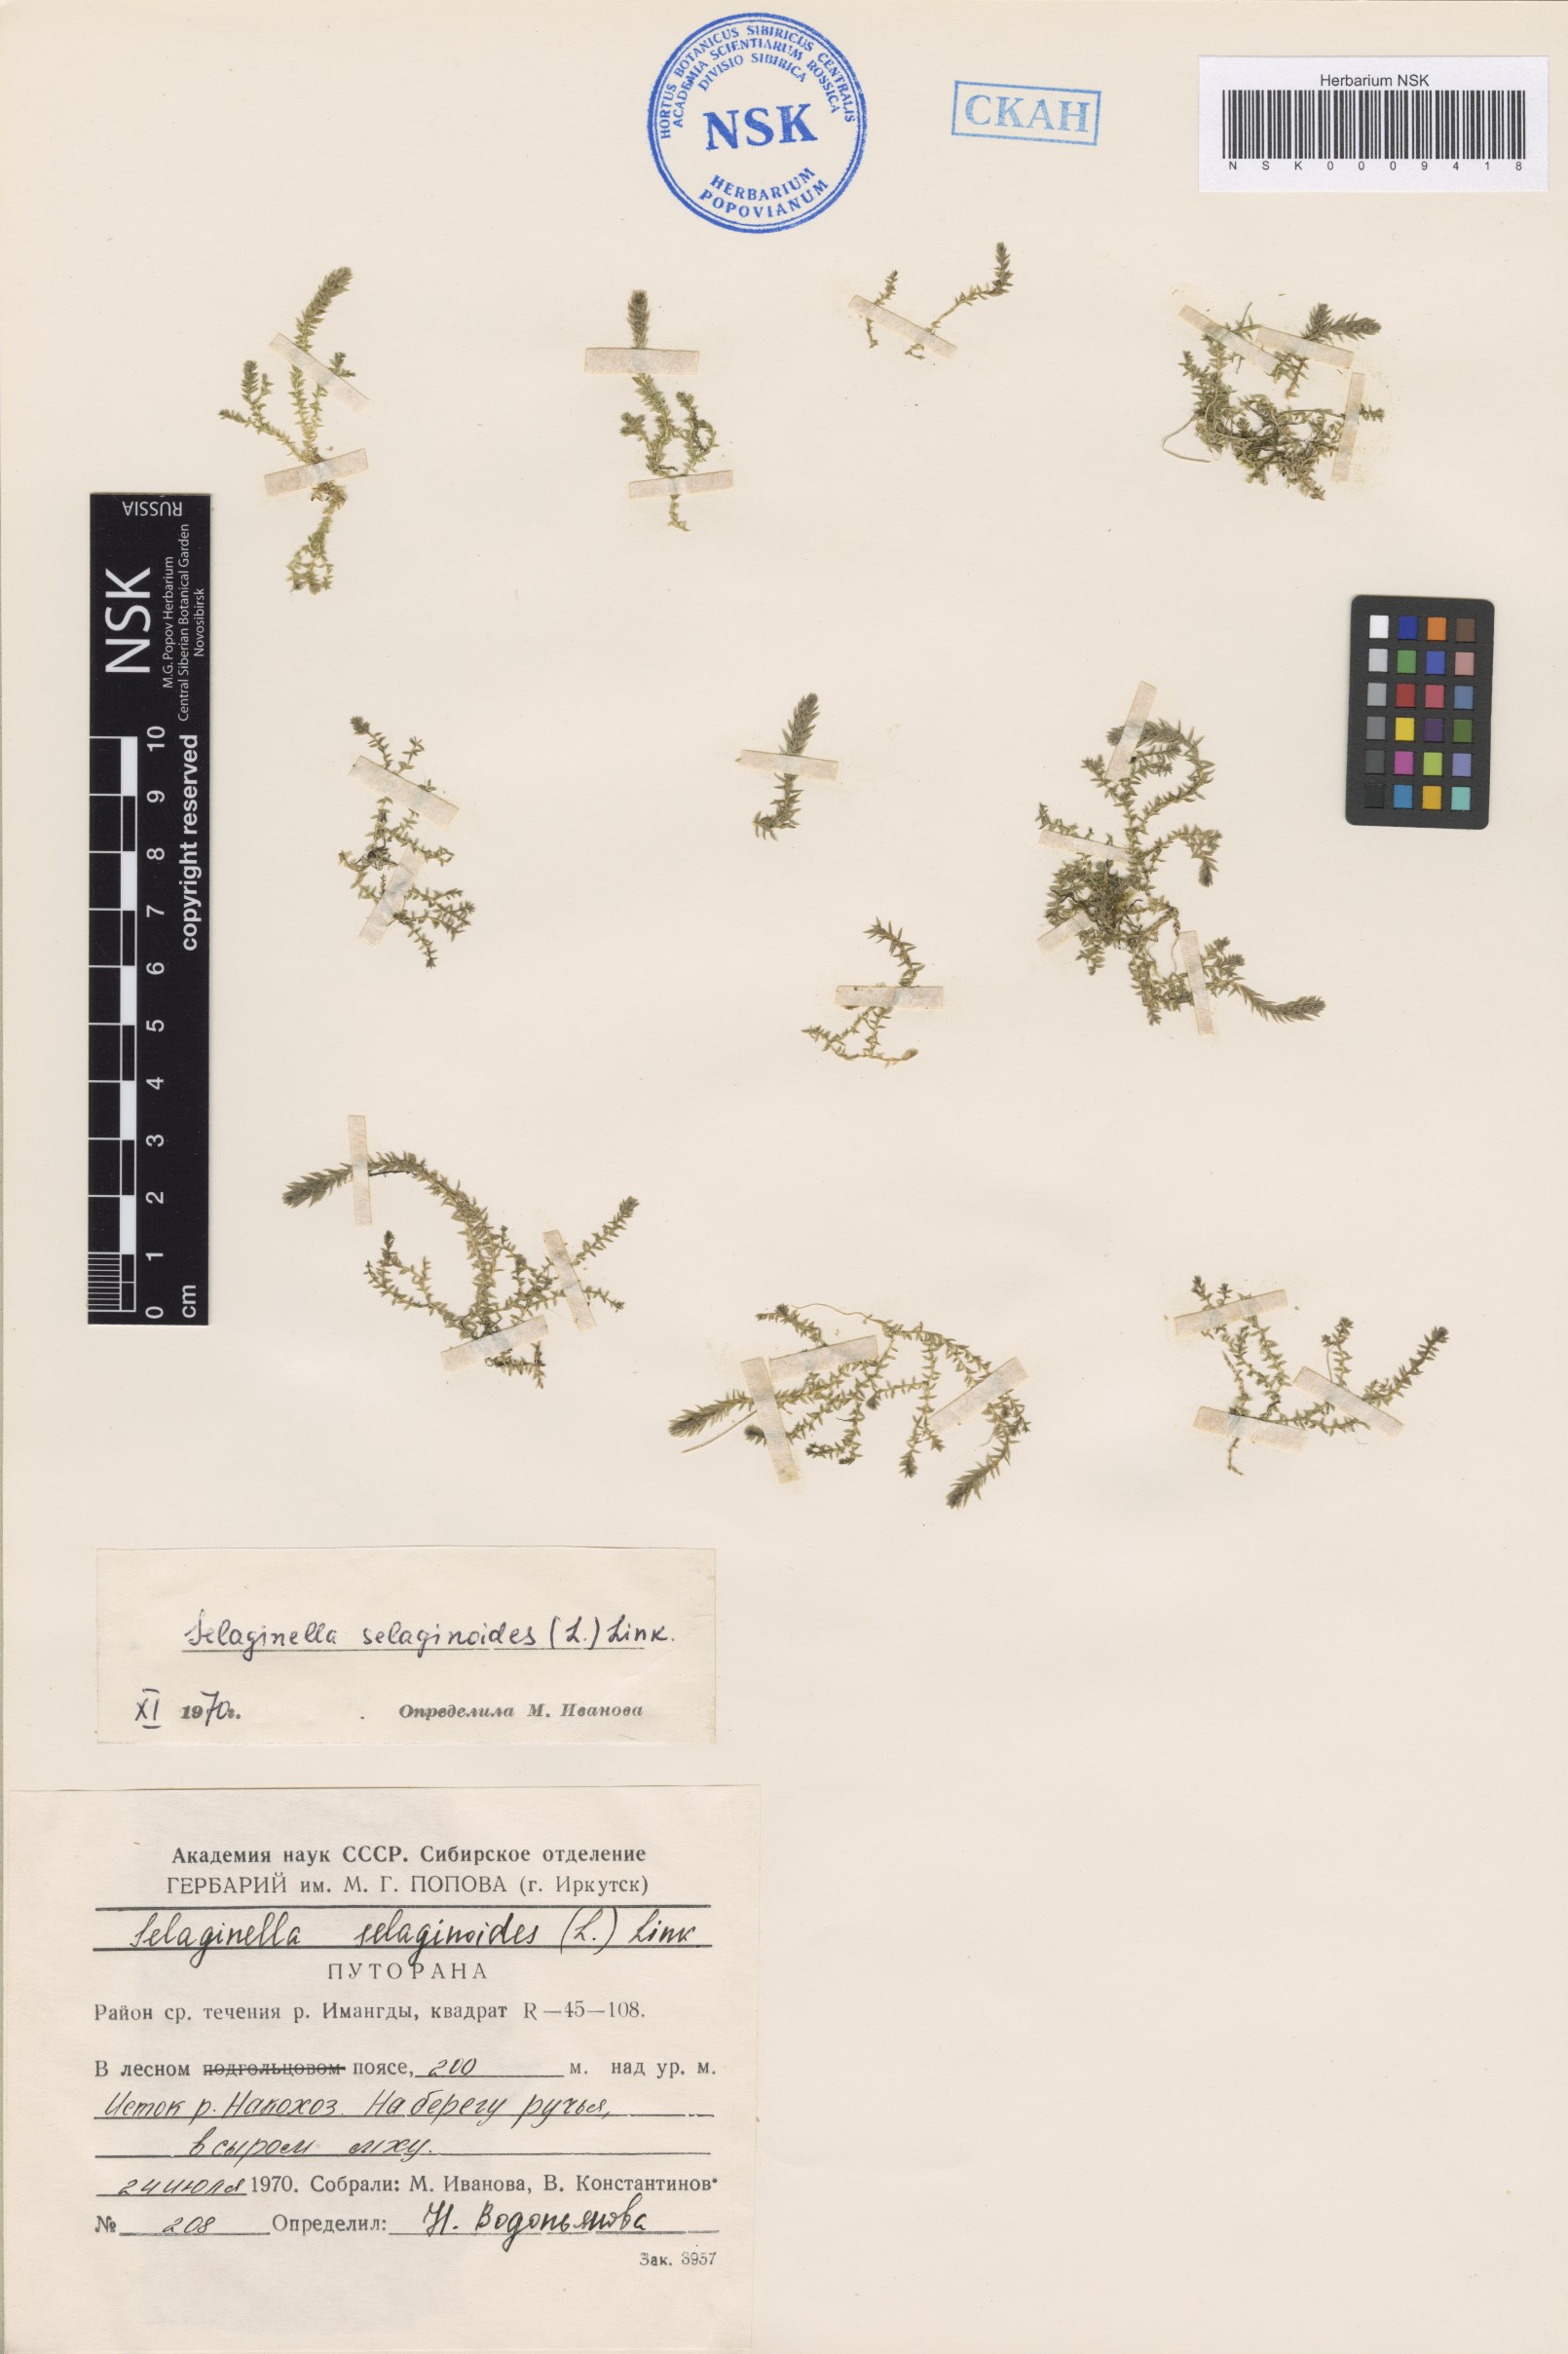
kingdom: Plantae
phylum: Tracheophyta
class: Lycopodiopsida
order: Selaginellales
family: Selaginellaceae
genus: Selaginella
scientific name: Selaginella selaginoides
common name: Prickly mountain-moss
